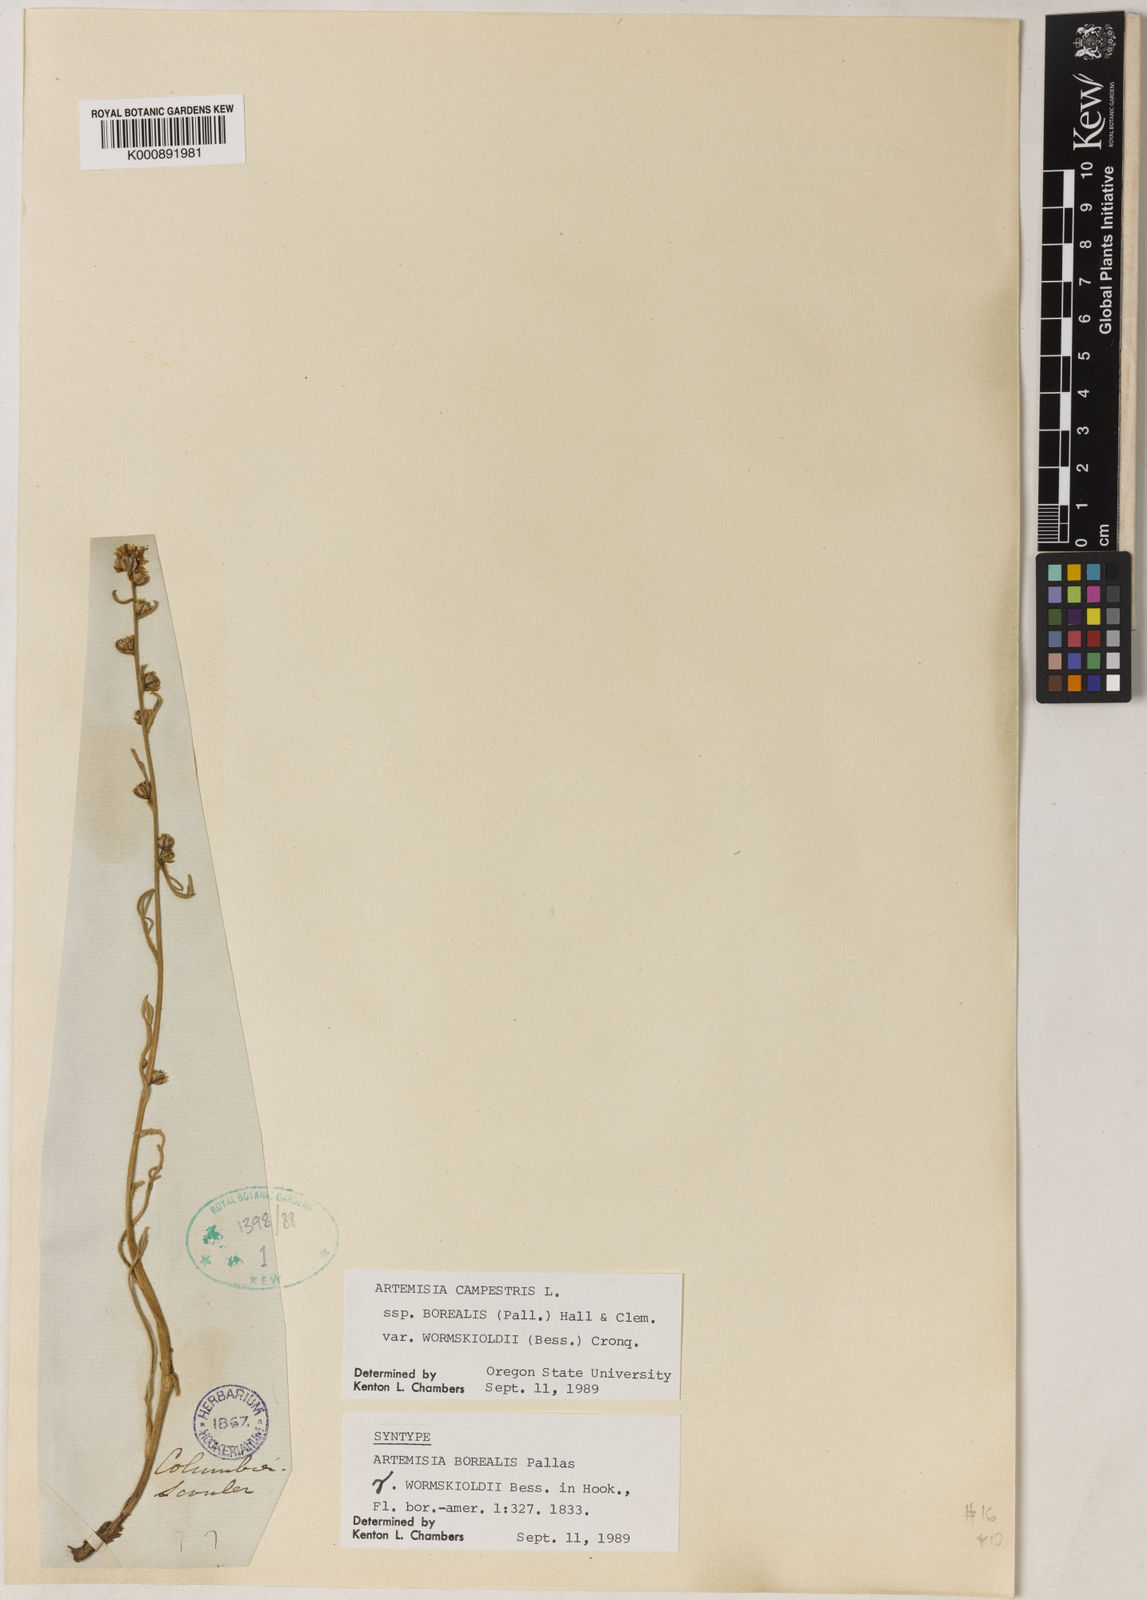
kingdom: Plantae
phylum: Tracheophyta
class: Magnoliopsida
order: Asterales
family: Asteraceae
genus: Artemisia
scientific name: Artemisia borealis
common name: Boreal sage
